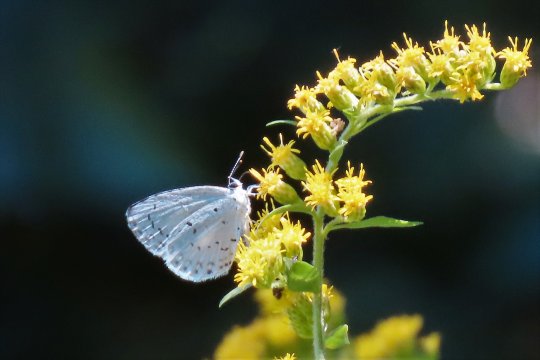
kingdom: Animalia
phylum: Arthropoda
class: Insecta
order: Lepidoptera
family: Lycaenidae
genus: Cyaniris
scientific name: Cyaniris neglecta
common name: Summer Azure
